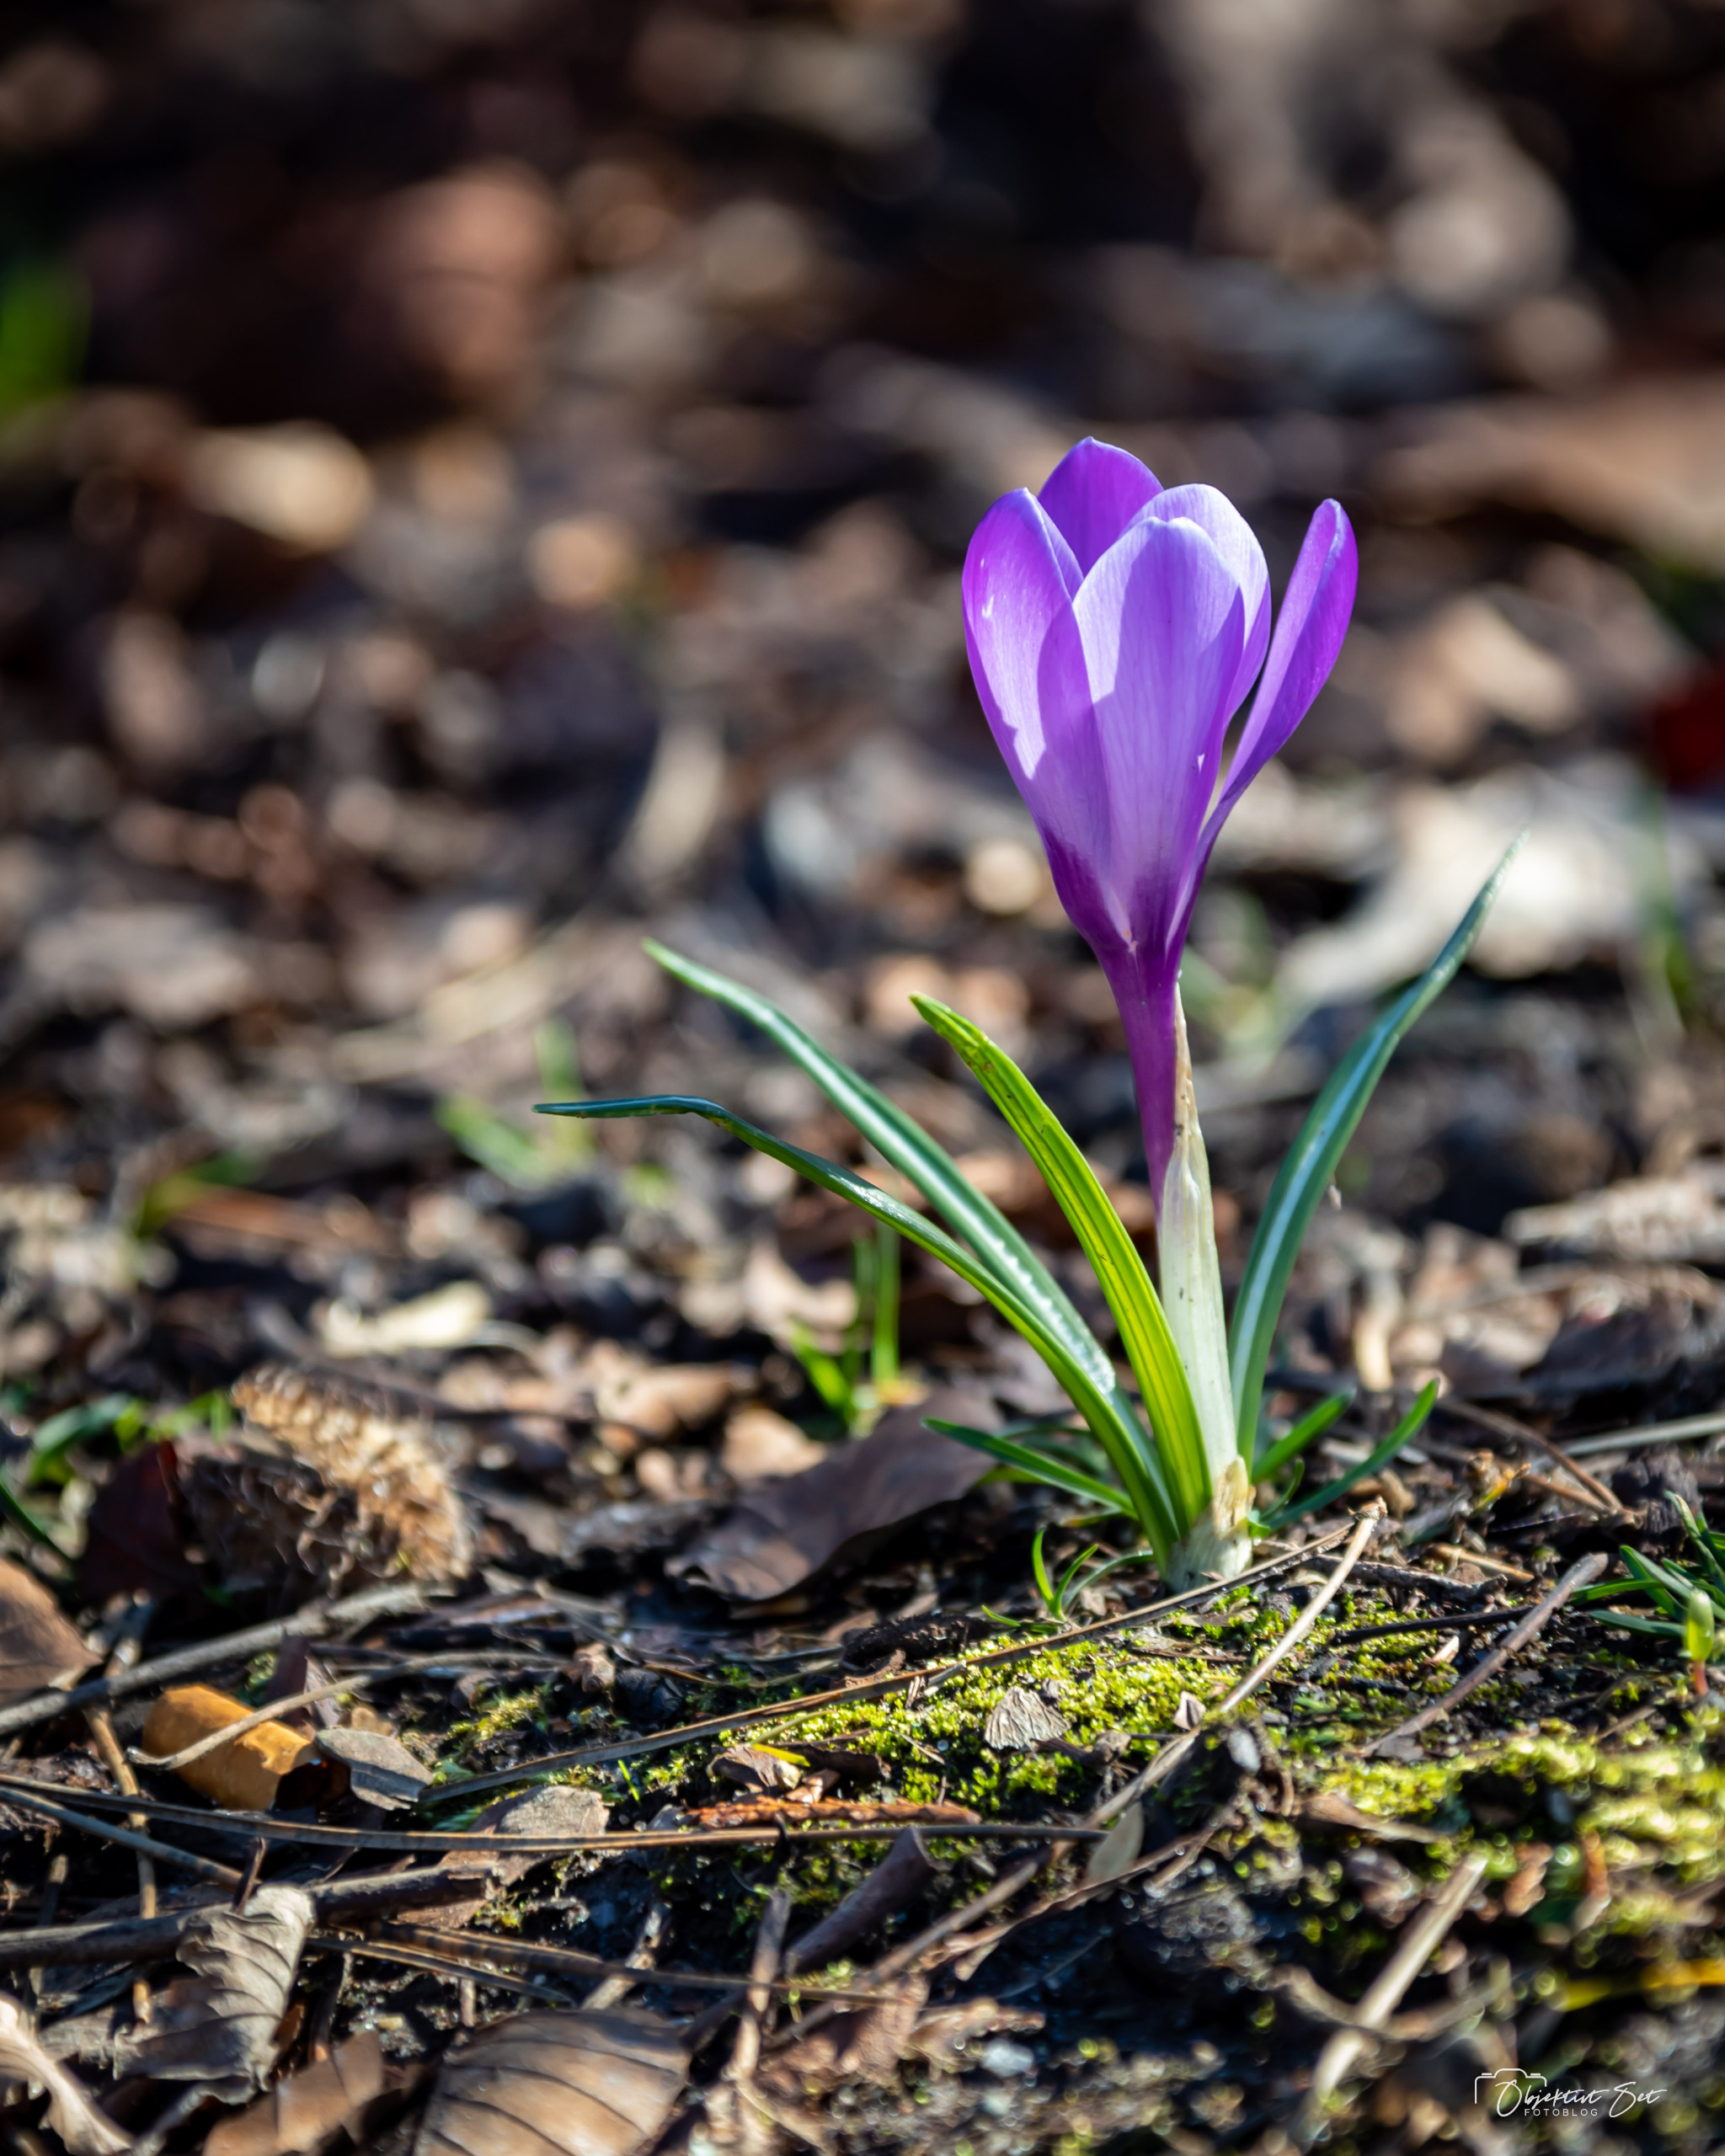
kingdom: Plantae
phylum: Tracheophyta
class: Liliopsida
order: Asparagales
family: Iridaceae
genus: Crocus
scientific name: Crocus vernus
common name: Vår-krokus
